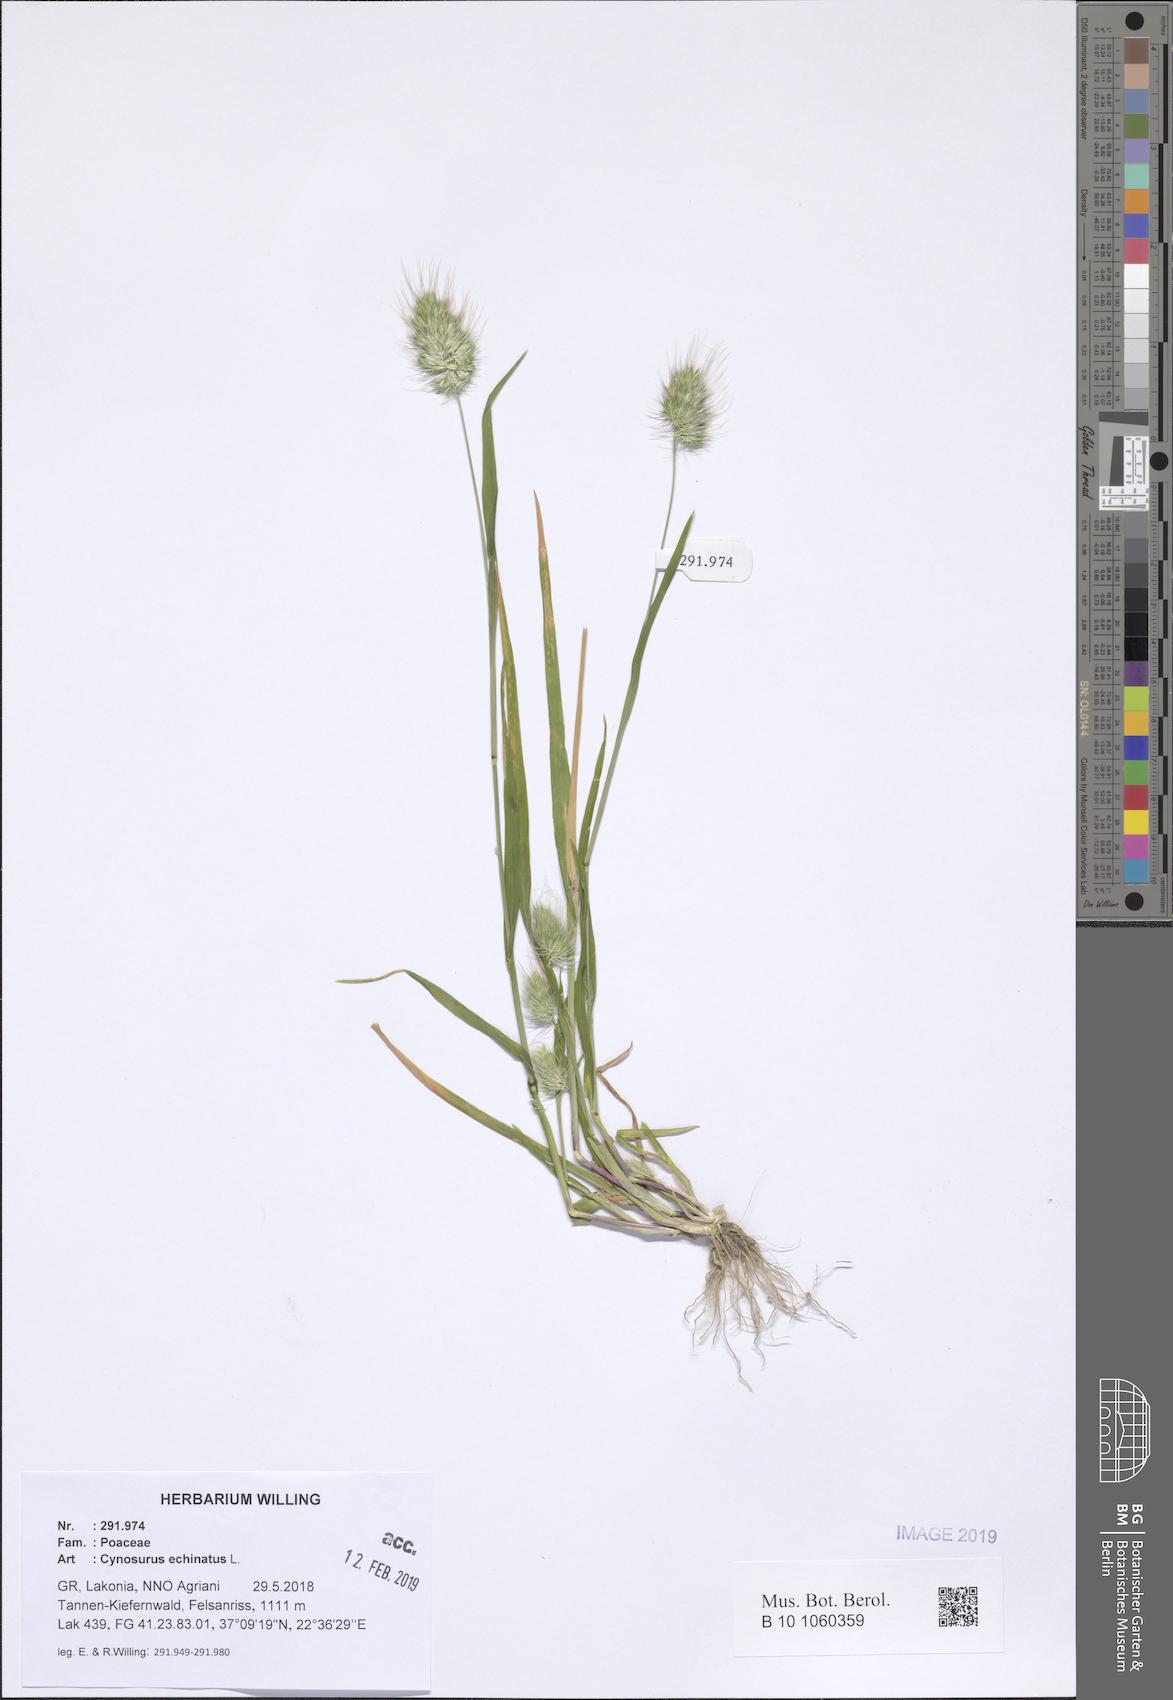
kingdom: Plantae
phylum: Tracheophyta
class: Liliopsida
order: Poales
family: Poaceae
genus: Cynosurus
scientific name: Cynosurus echinatus
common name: Rough dog's-tail
